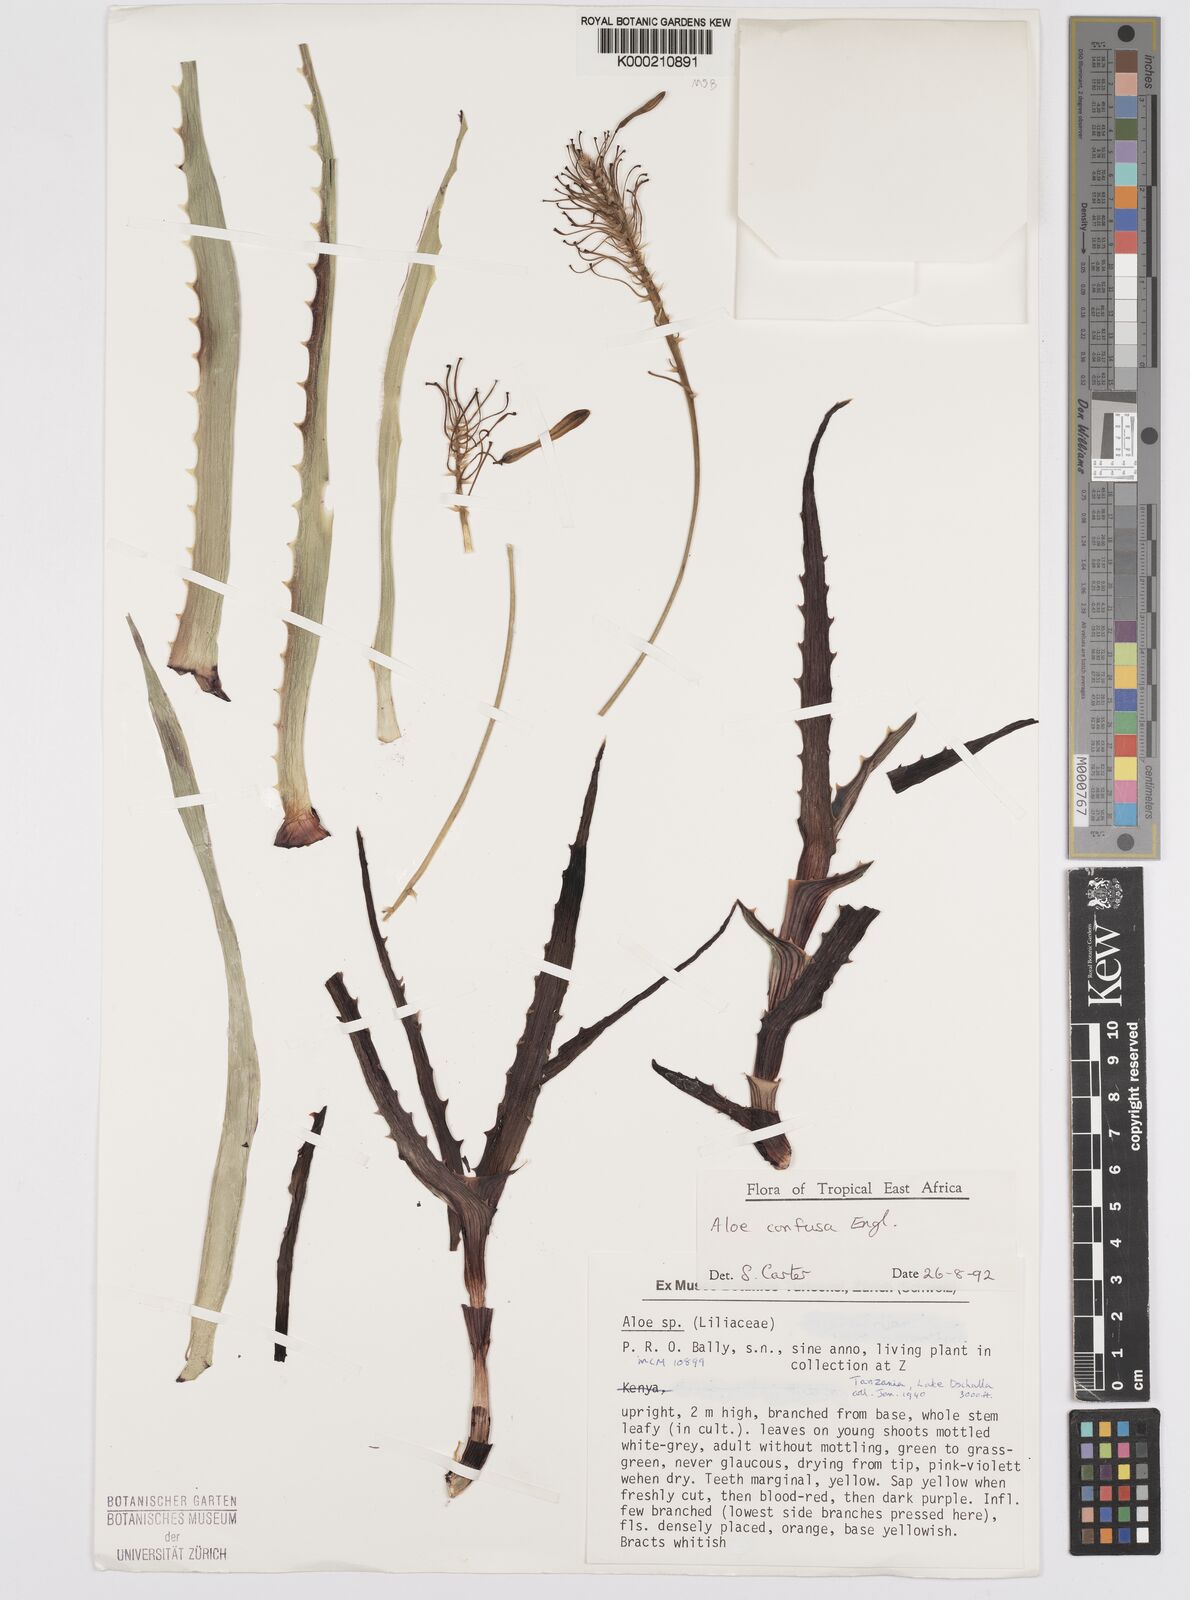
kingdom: Plantae
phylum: Tracheophyta
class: Liliopsida
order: Asparagales
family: Asphodelaceae
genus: Aloe
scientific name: Aloe confusa
